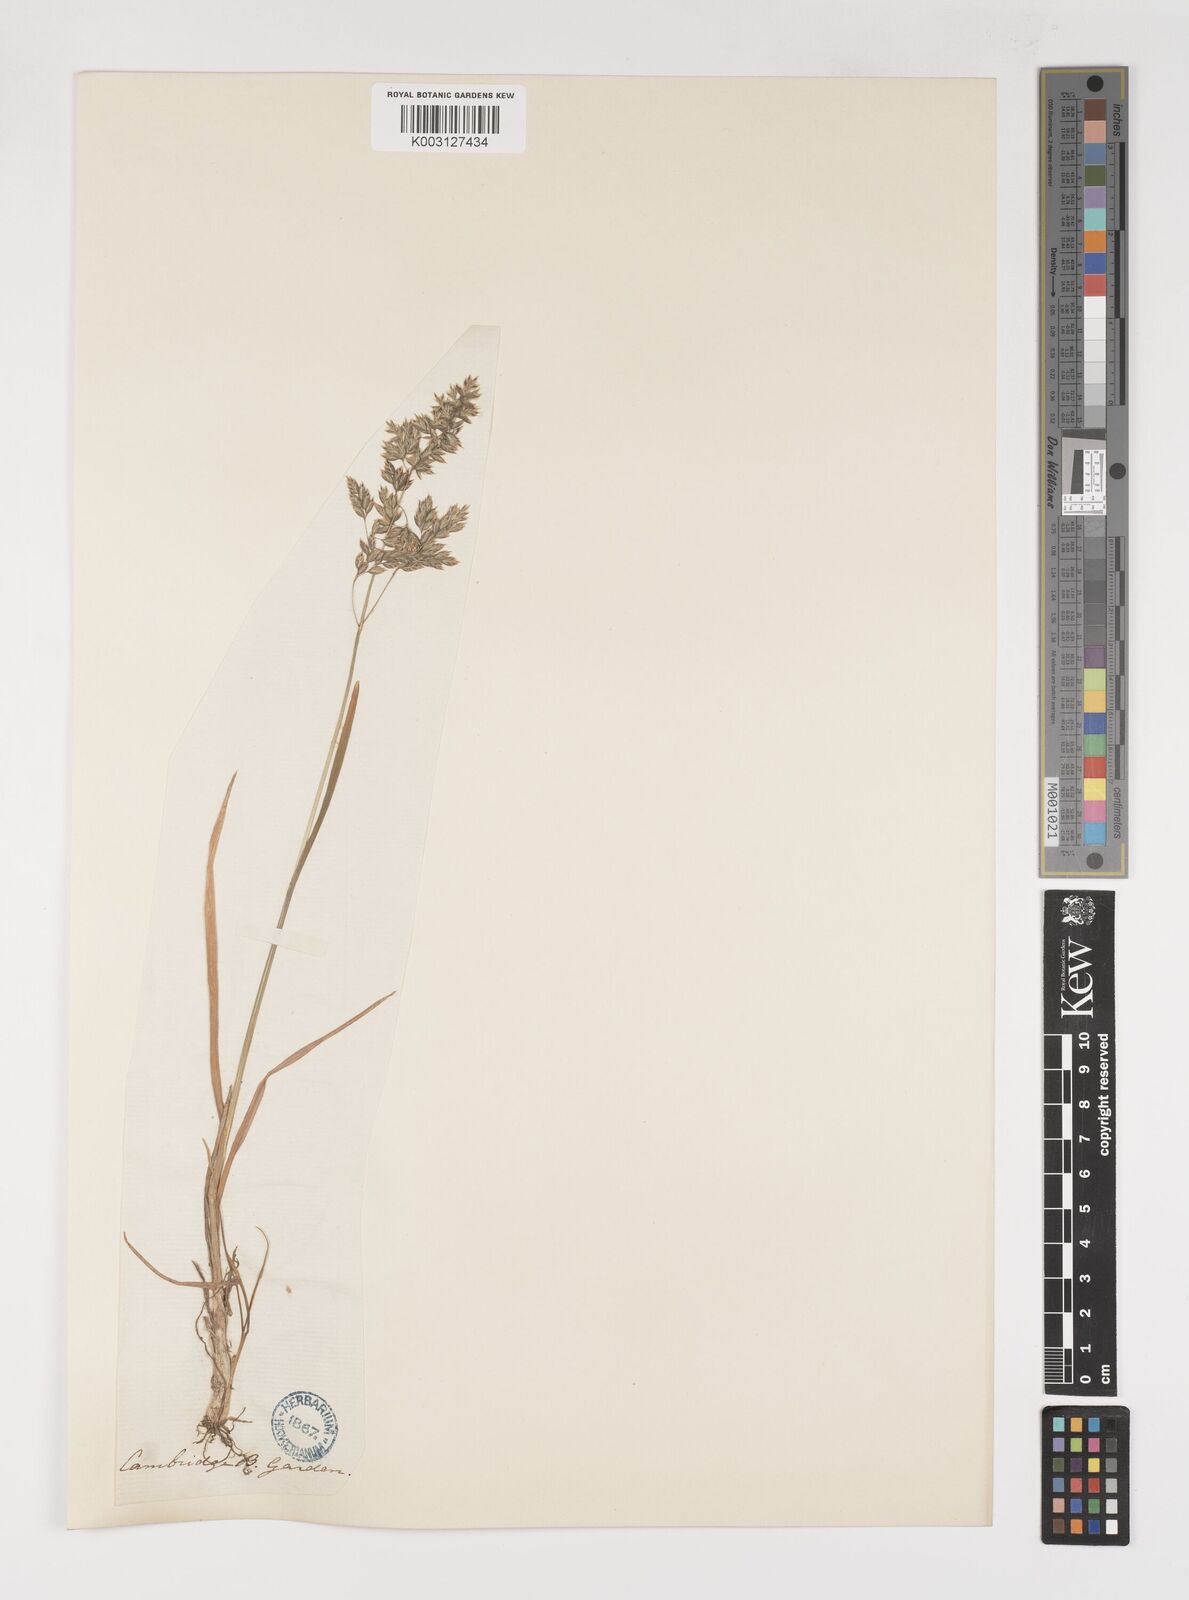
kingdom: Plantae
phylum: Tracheophyta
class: Liliopsida
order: Poales
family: Poaceae
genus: Poa
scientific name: Poa alpina
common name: Alpine bluegrass
